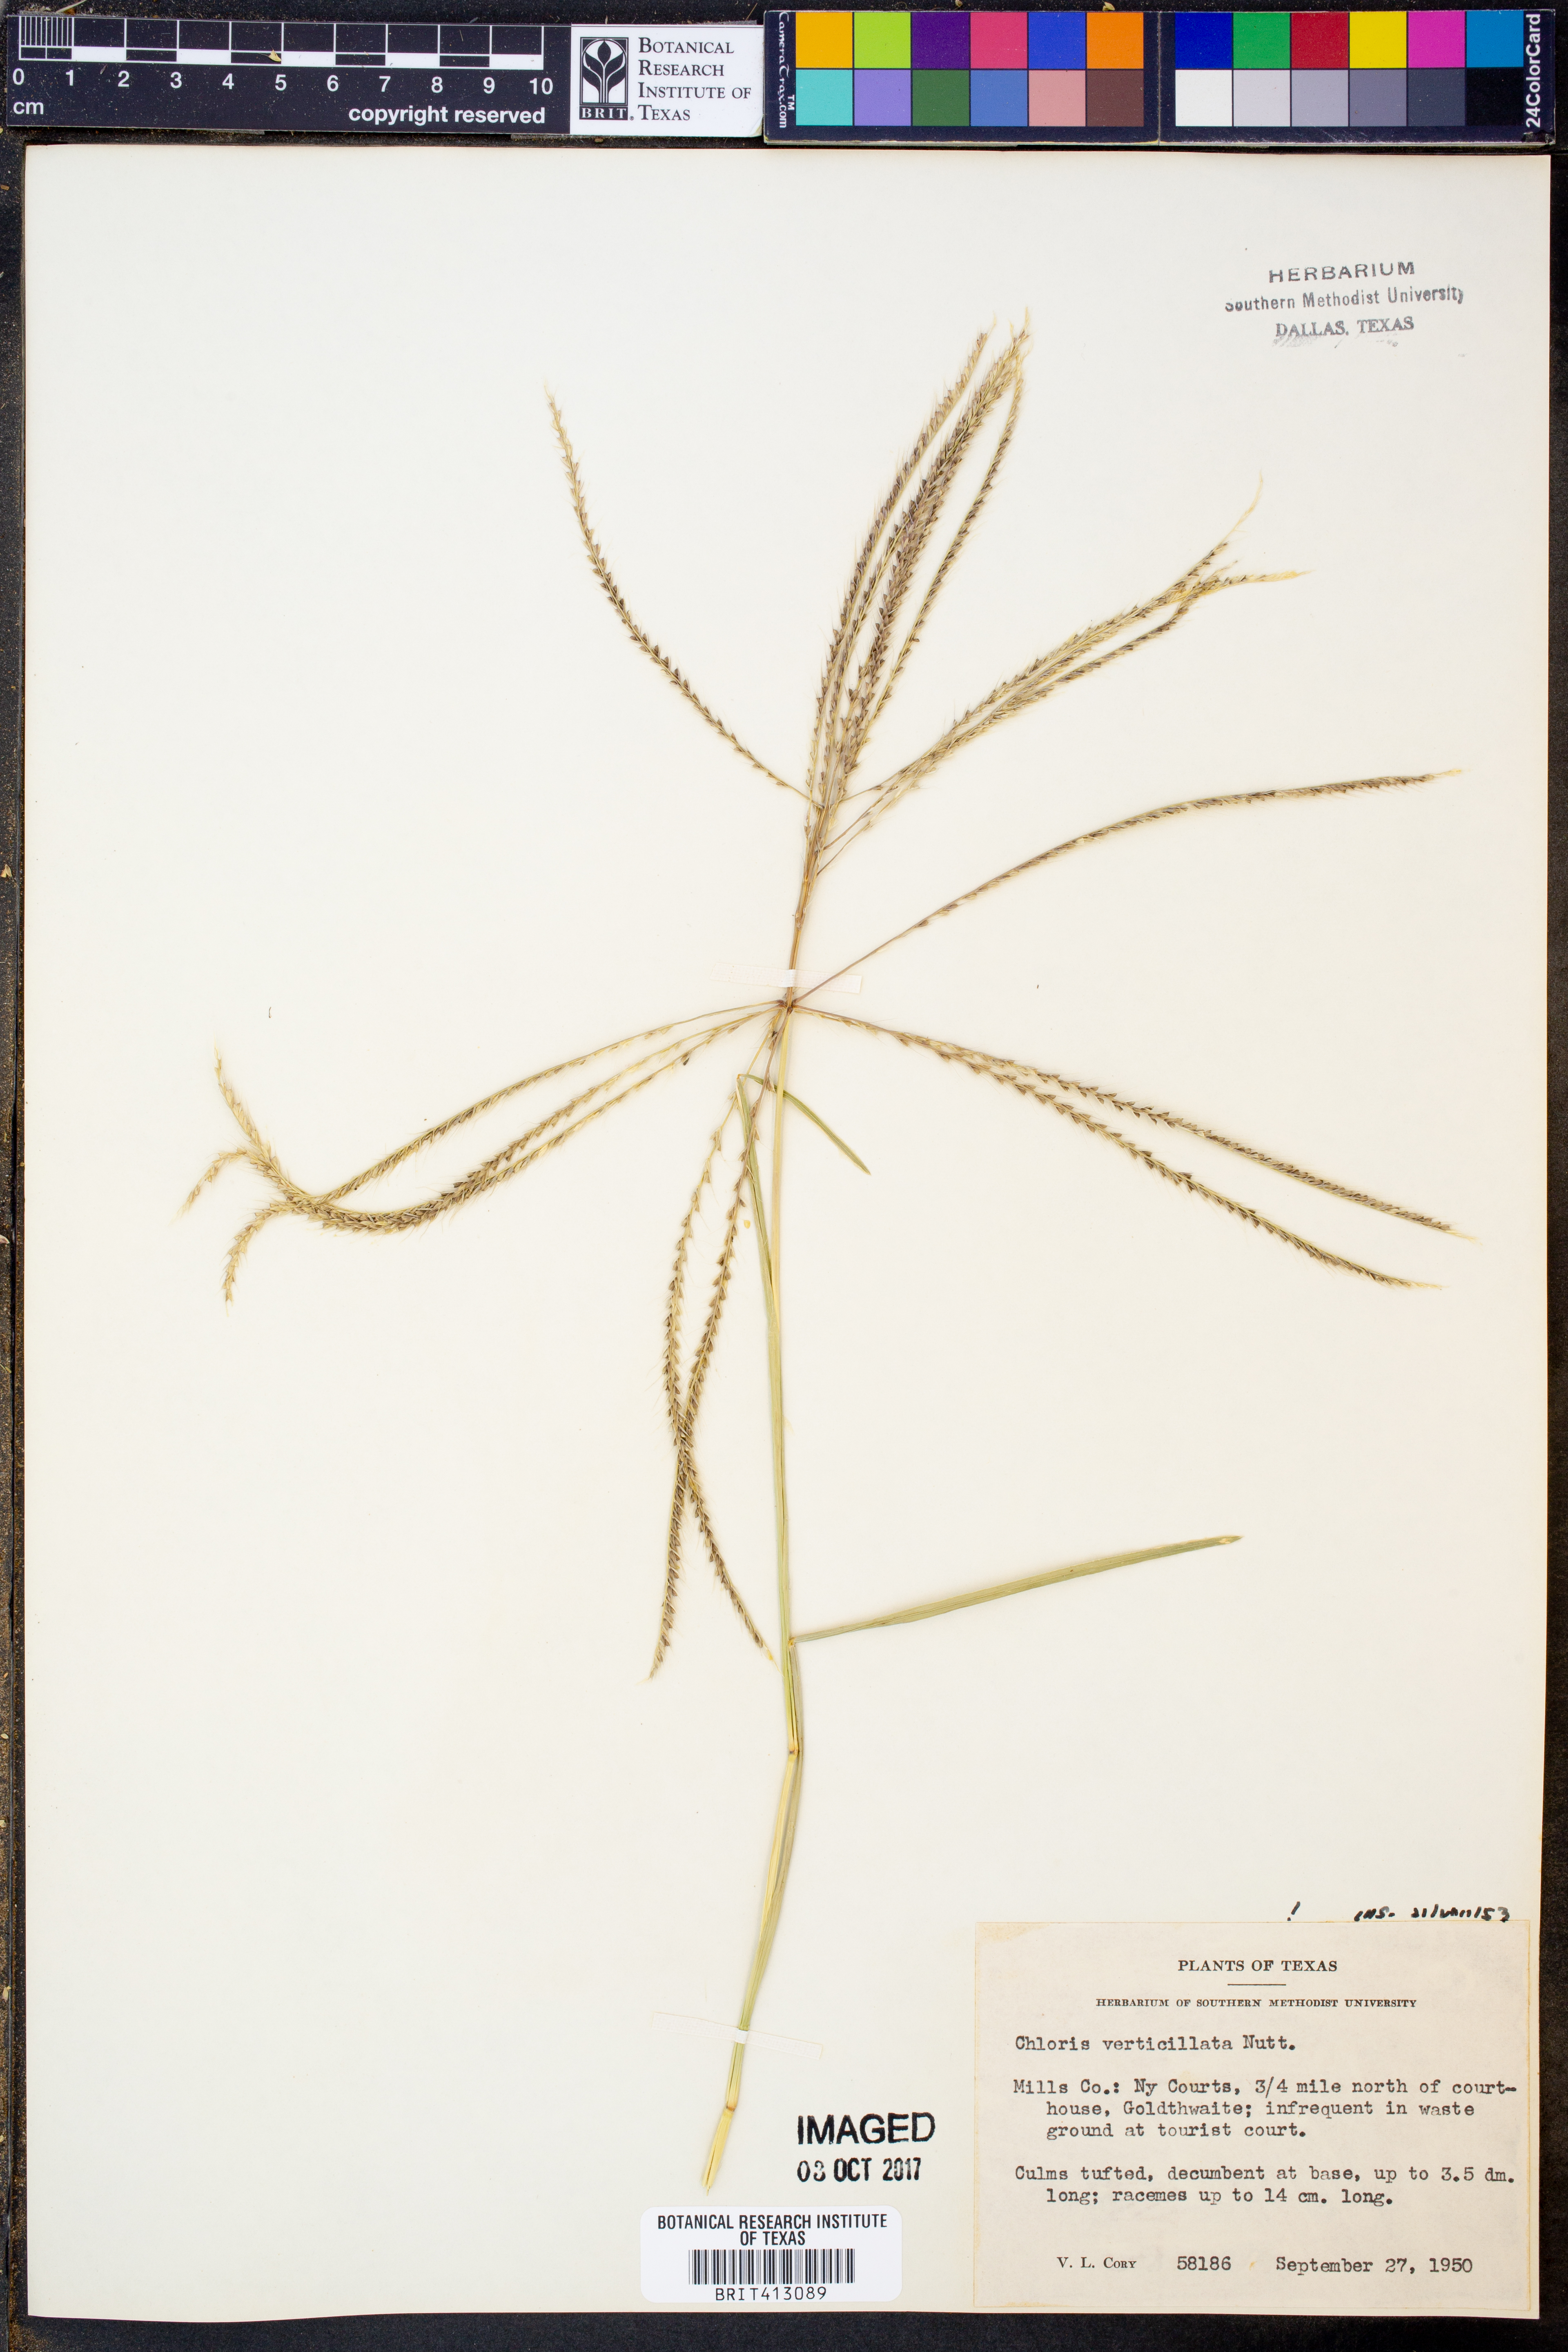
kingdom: Plantae
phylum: Tracheophyta
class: Liliopsida
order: Poales
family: Poaceae
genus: Chloris
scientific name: Chloris verticillata
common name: Tumble windmill grass
